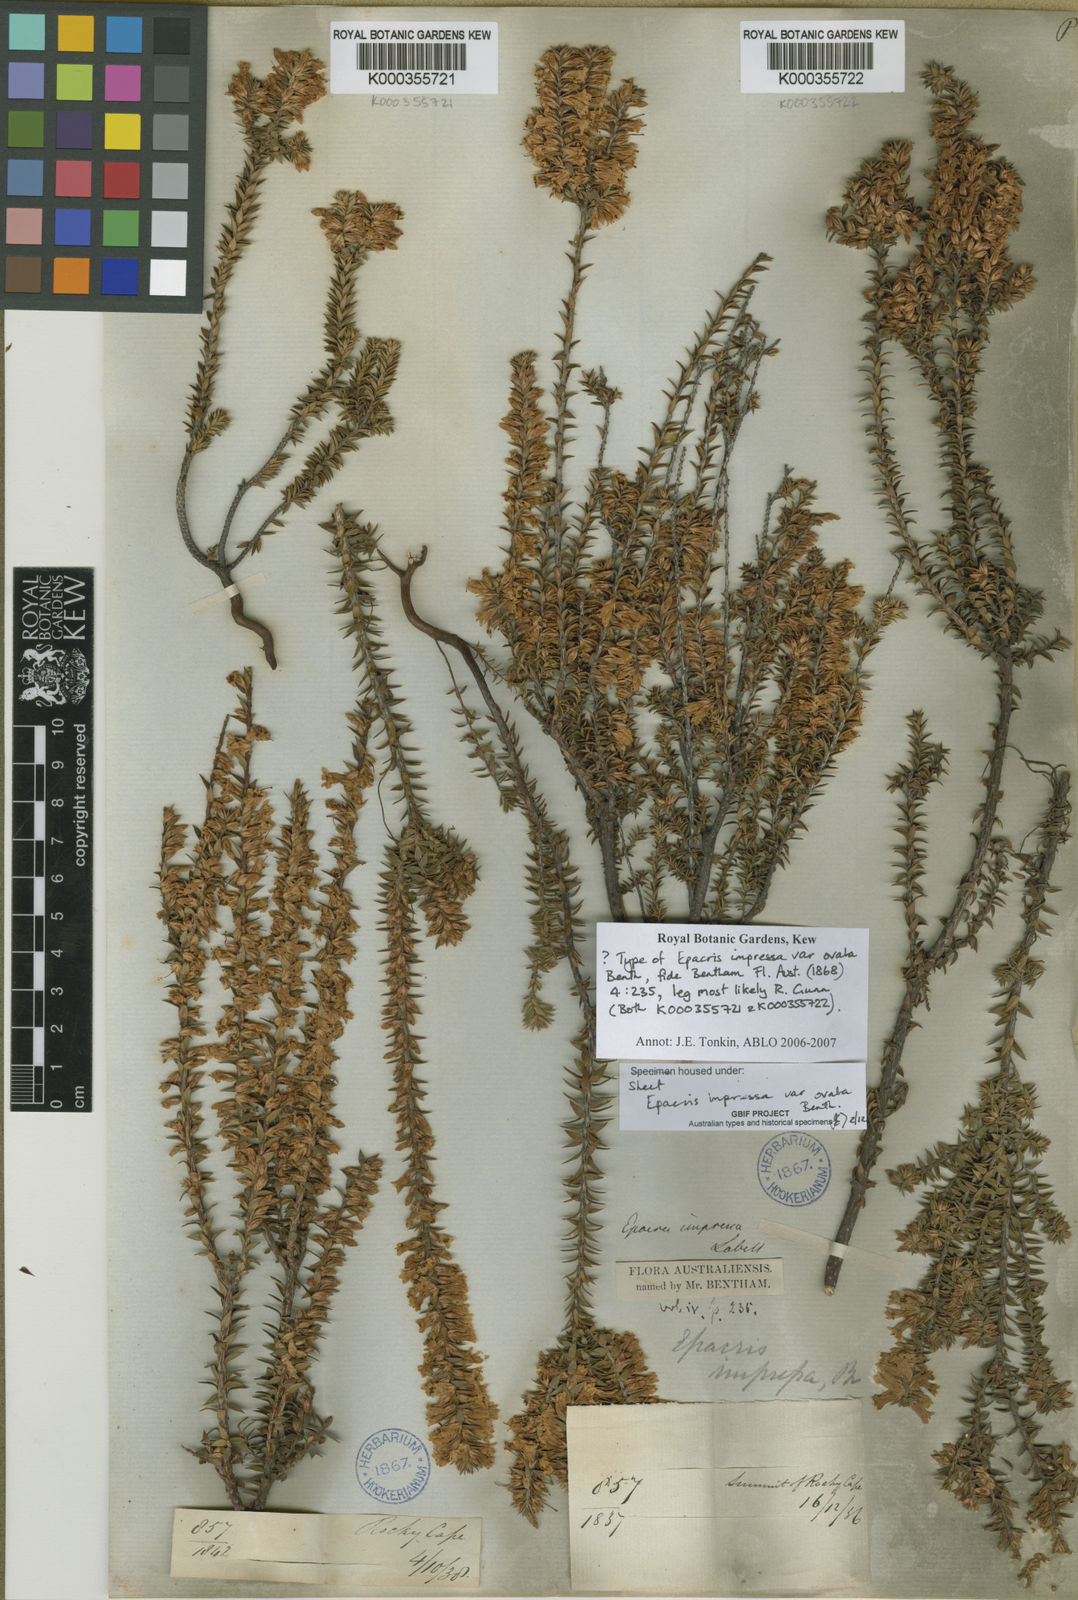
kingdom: Plantae
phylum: Tracheophyta
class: Magnoliopsida
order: Ericales
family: Ericaceae
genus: Epacris
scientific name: Epacris impressa
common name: Common-heath
